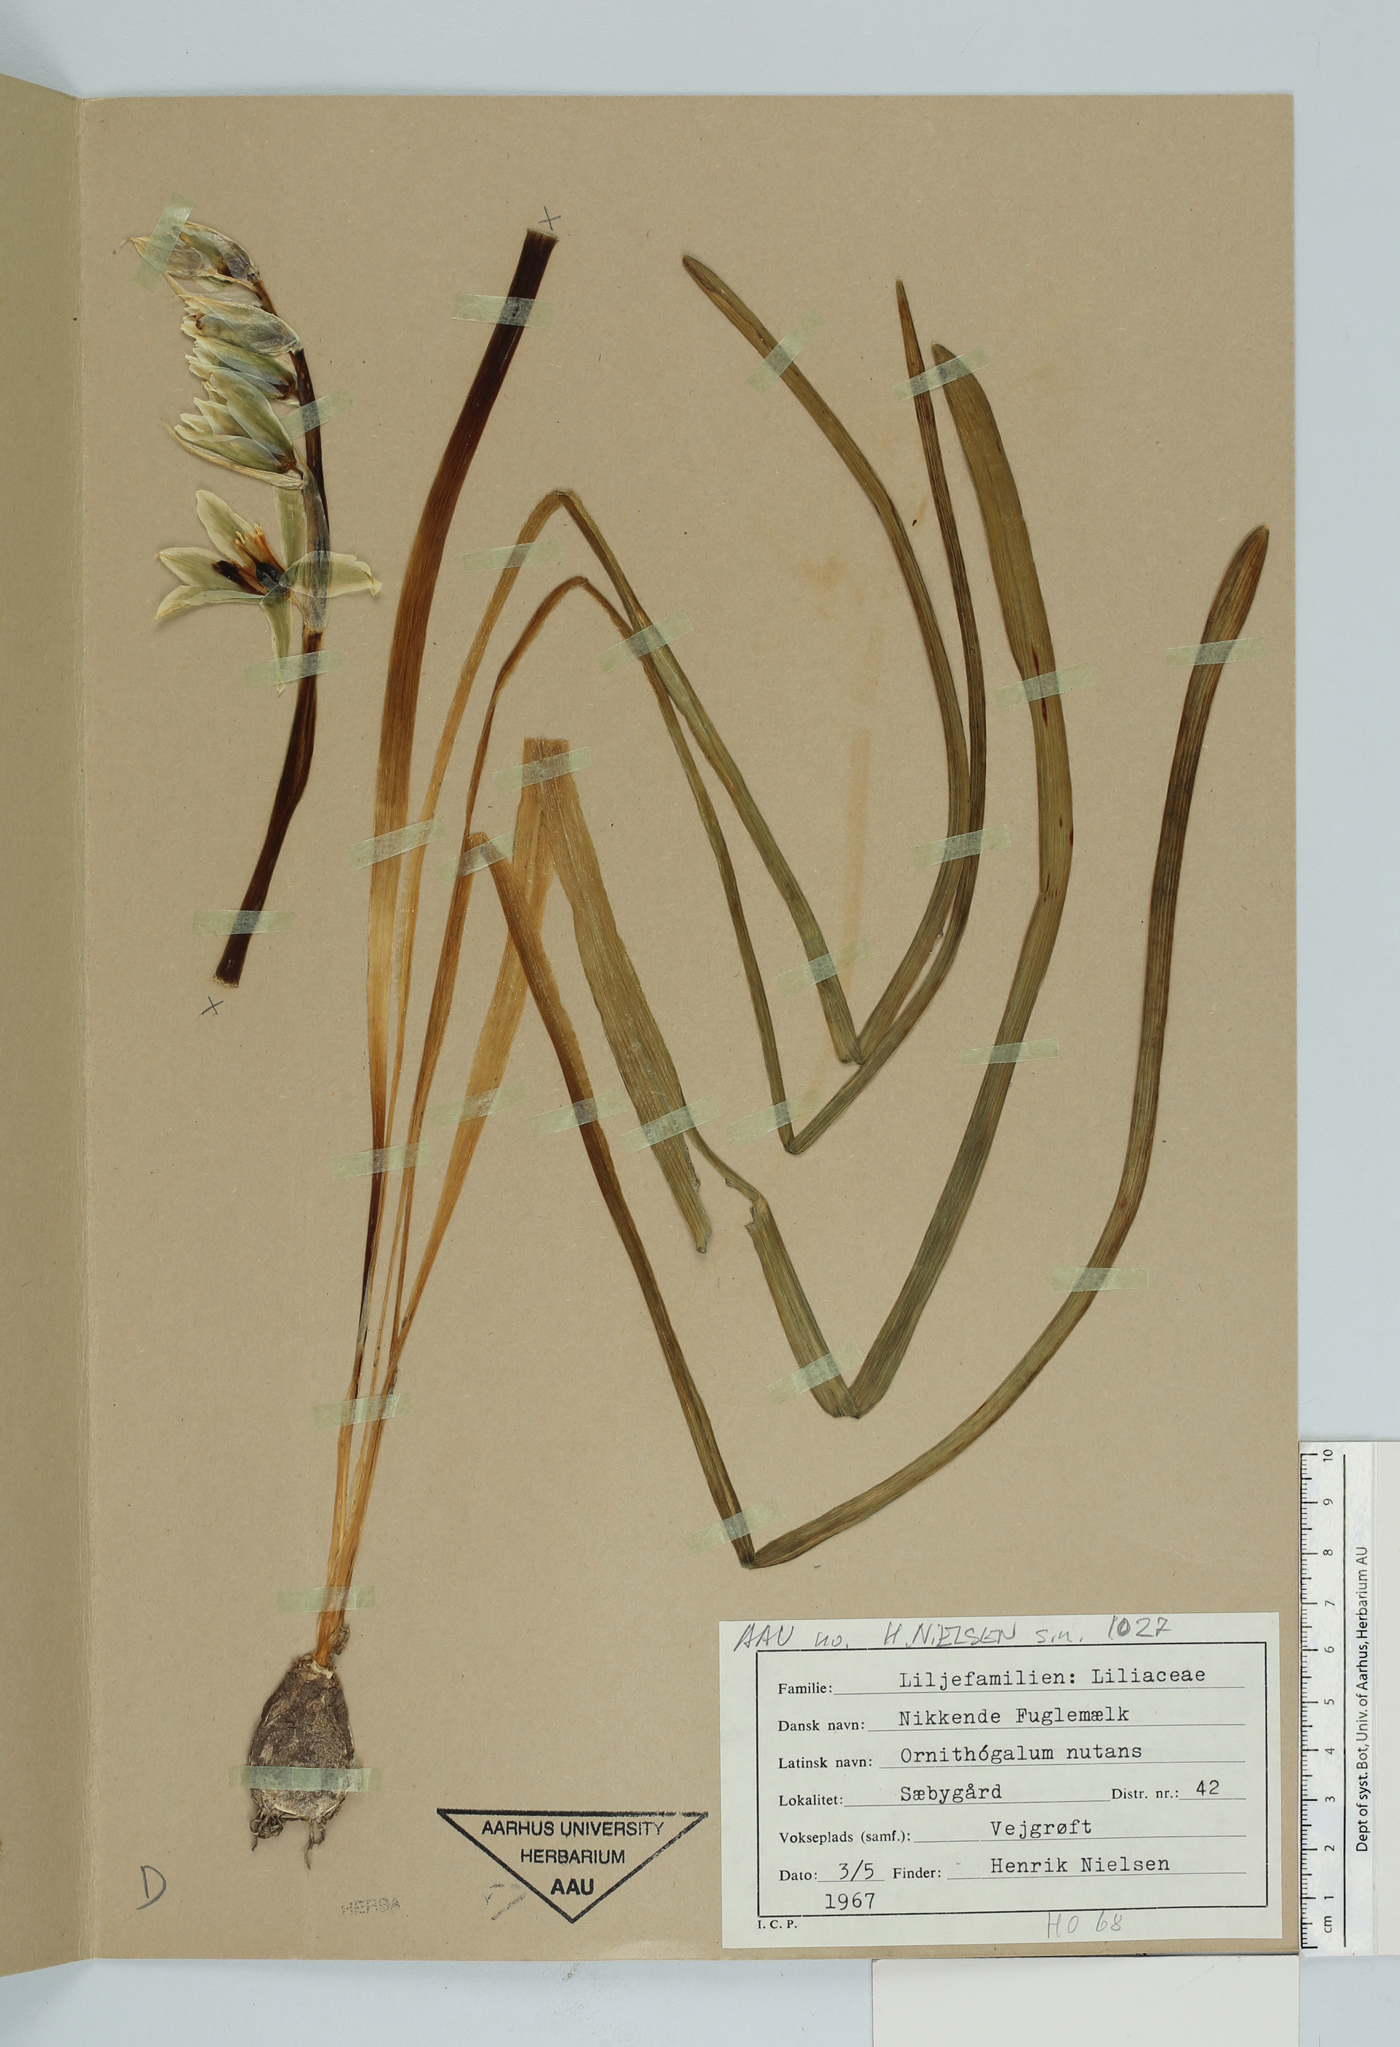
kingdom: Plantae
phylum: Tracheophyta
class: Liliopsida
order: Asparagales
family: Asparagaceae
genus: Ornithogalum
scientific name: Ornithogalum nutans
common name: Drooping star-of-bethlehem
